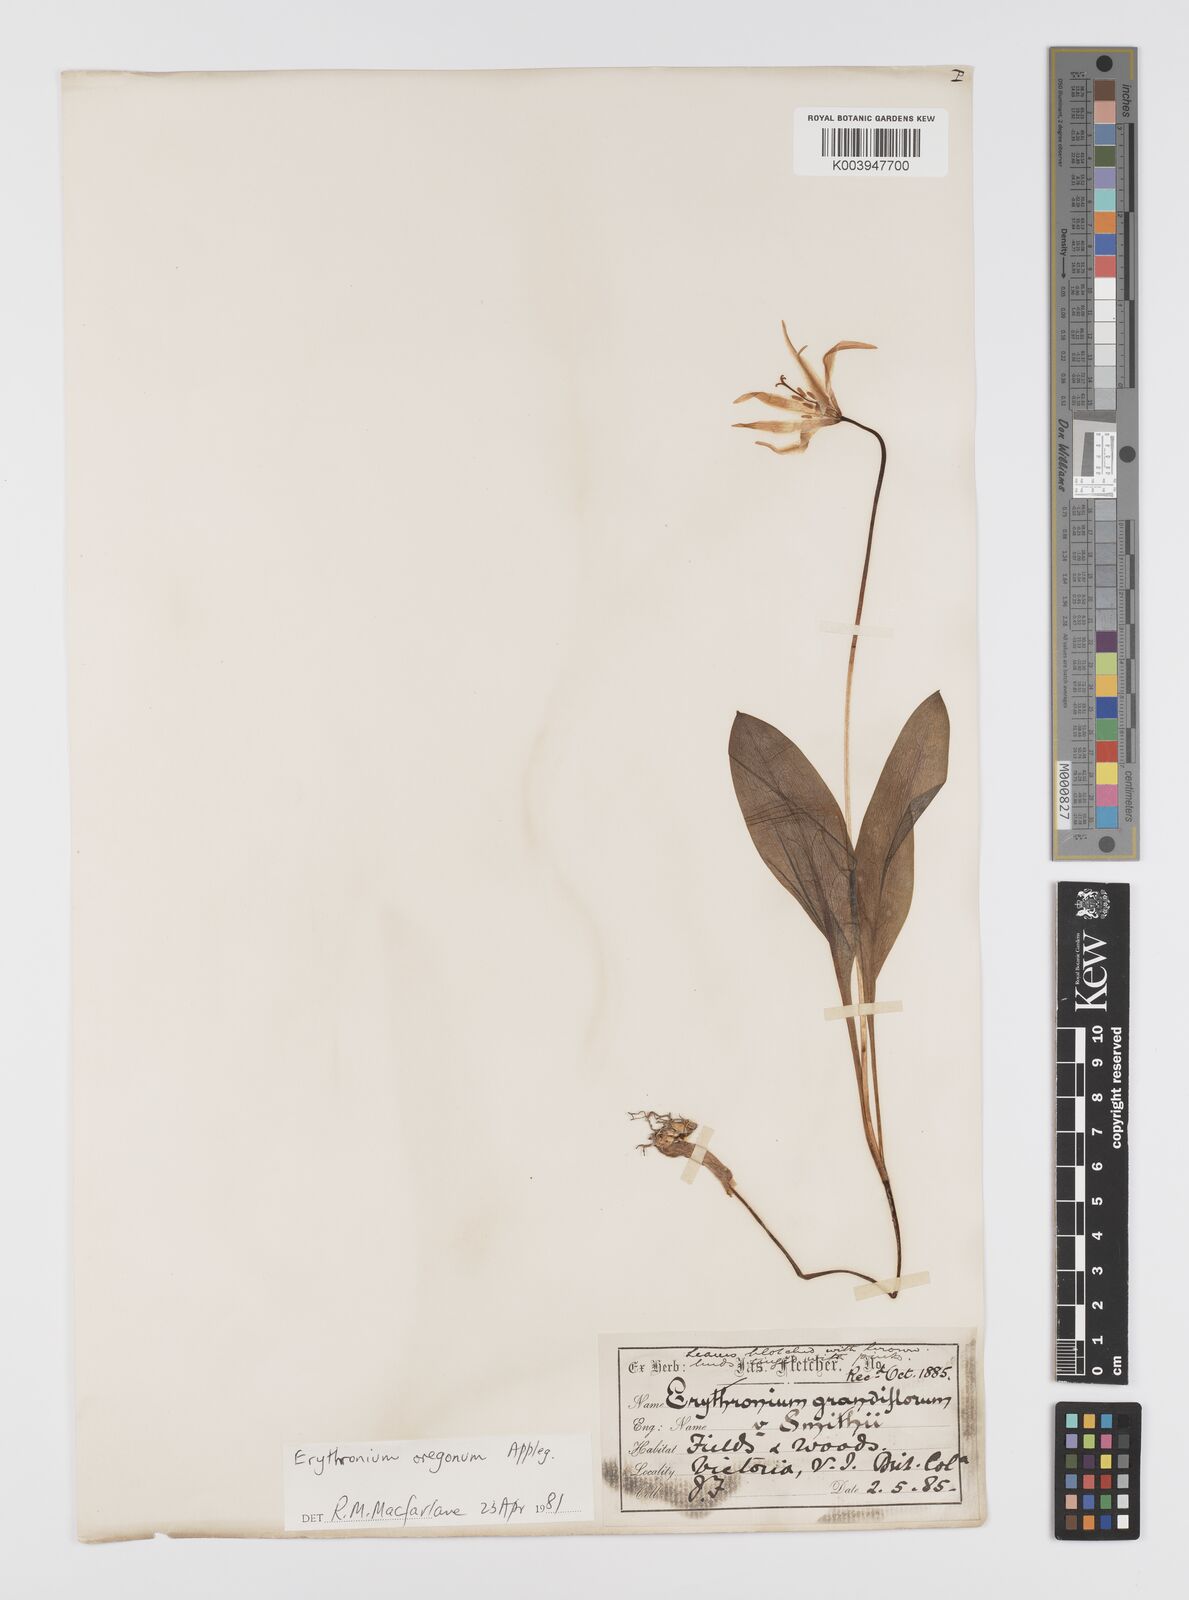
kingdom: Plantae
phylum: Tracheophyta
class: Liliopsida
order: Liliales
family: Liliaceae
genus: Erythronium
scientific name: Erythronium oregonum
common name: Giant adder's-tongue
